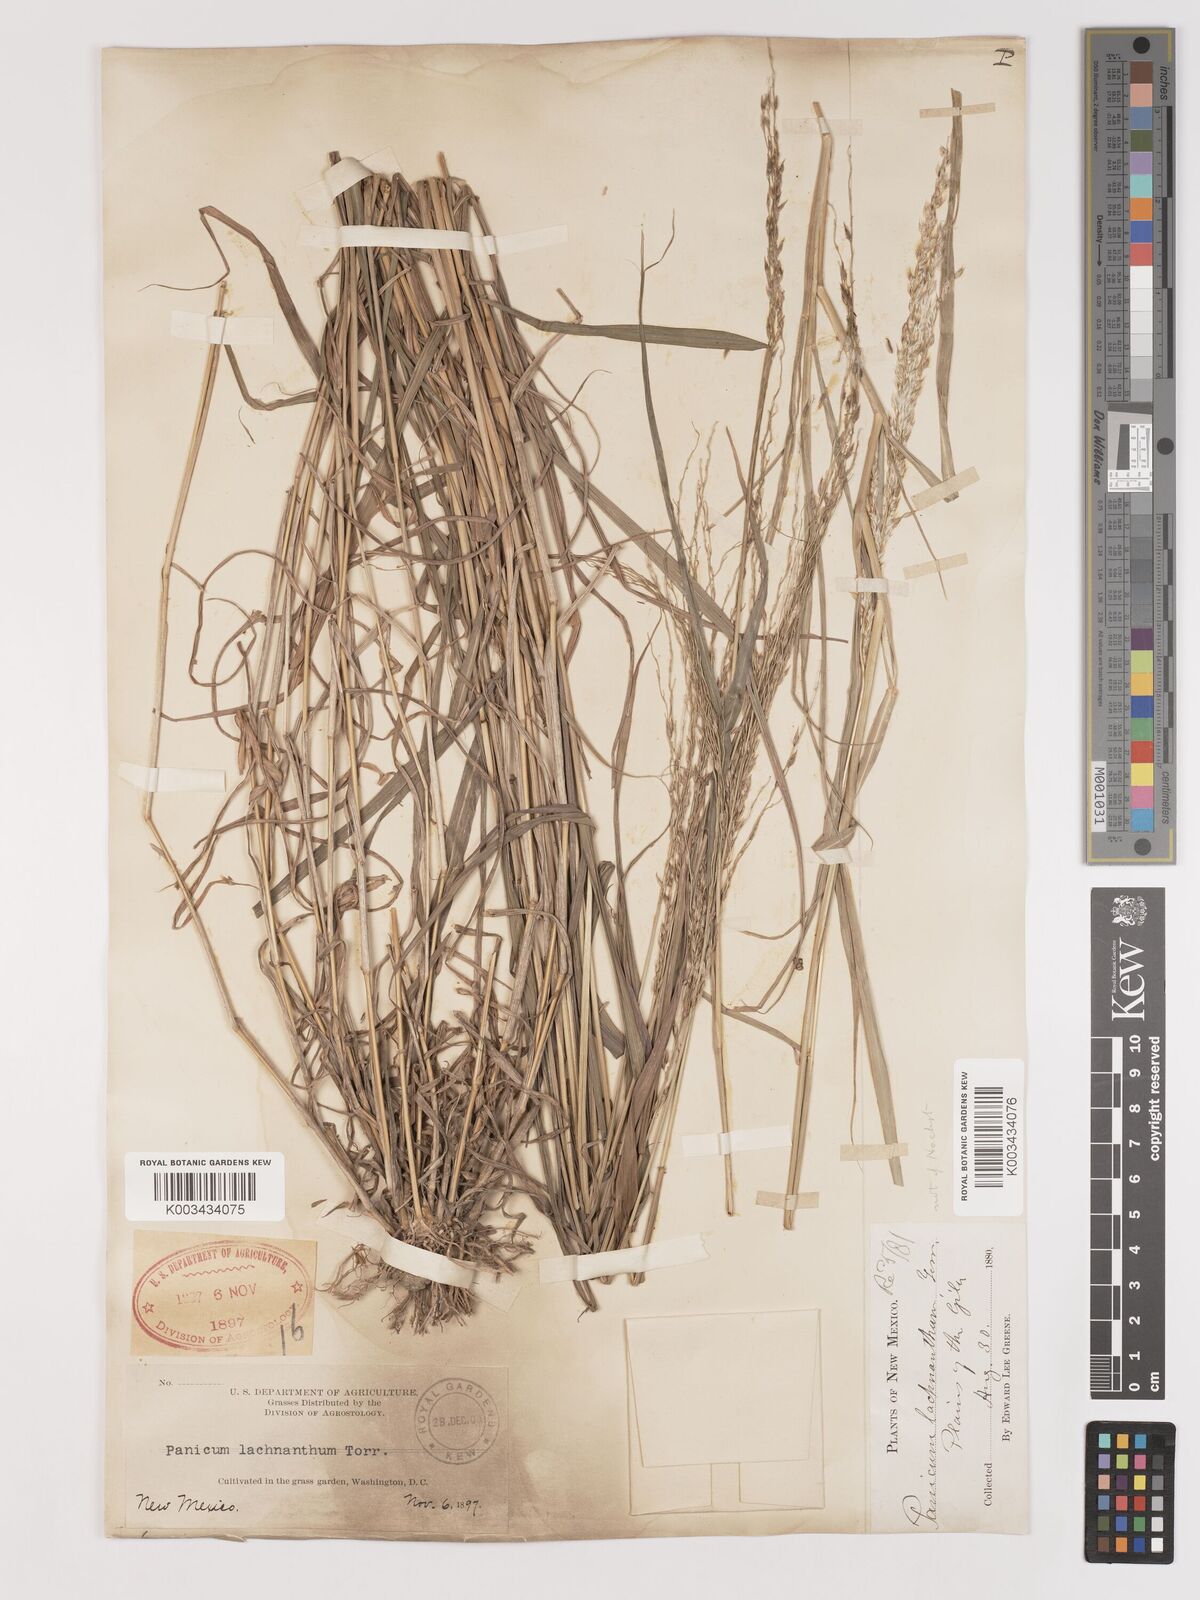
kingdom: Plantae
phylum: Tracheophyta
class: Liliopsida
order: Poales
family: Poaceae
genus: Digitaria
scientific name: Digitaria californica
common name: Arizona cottontop
